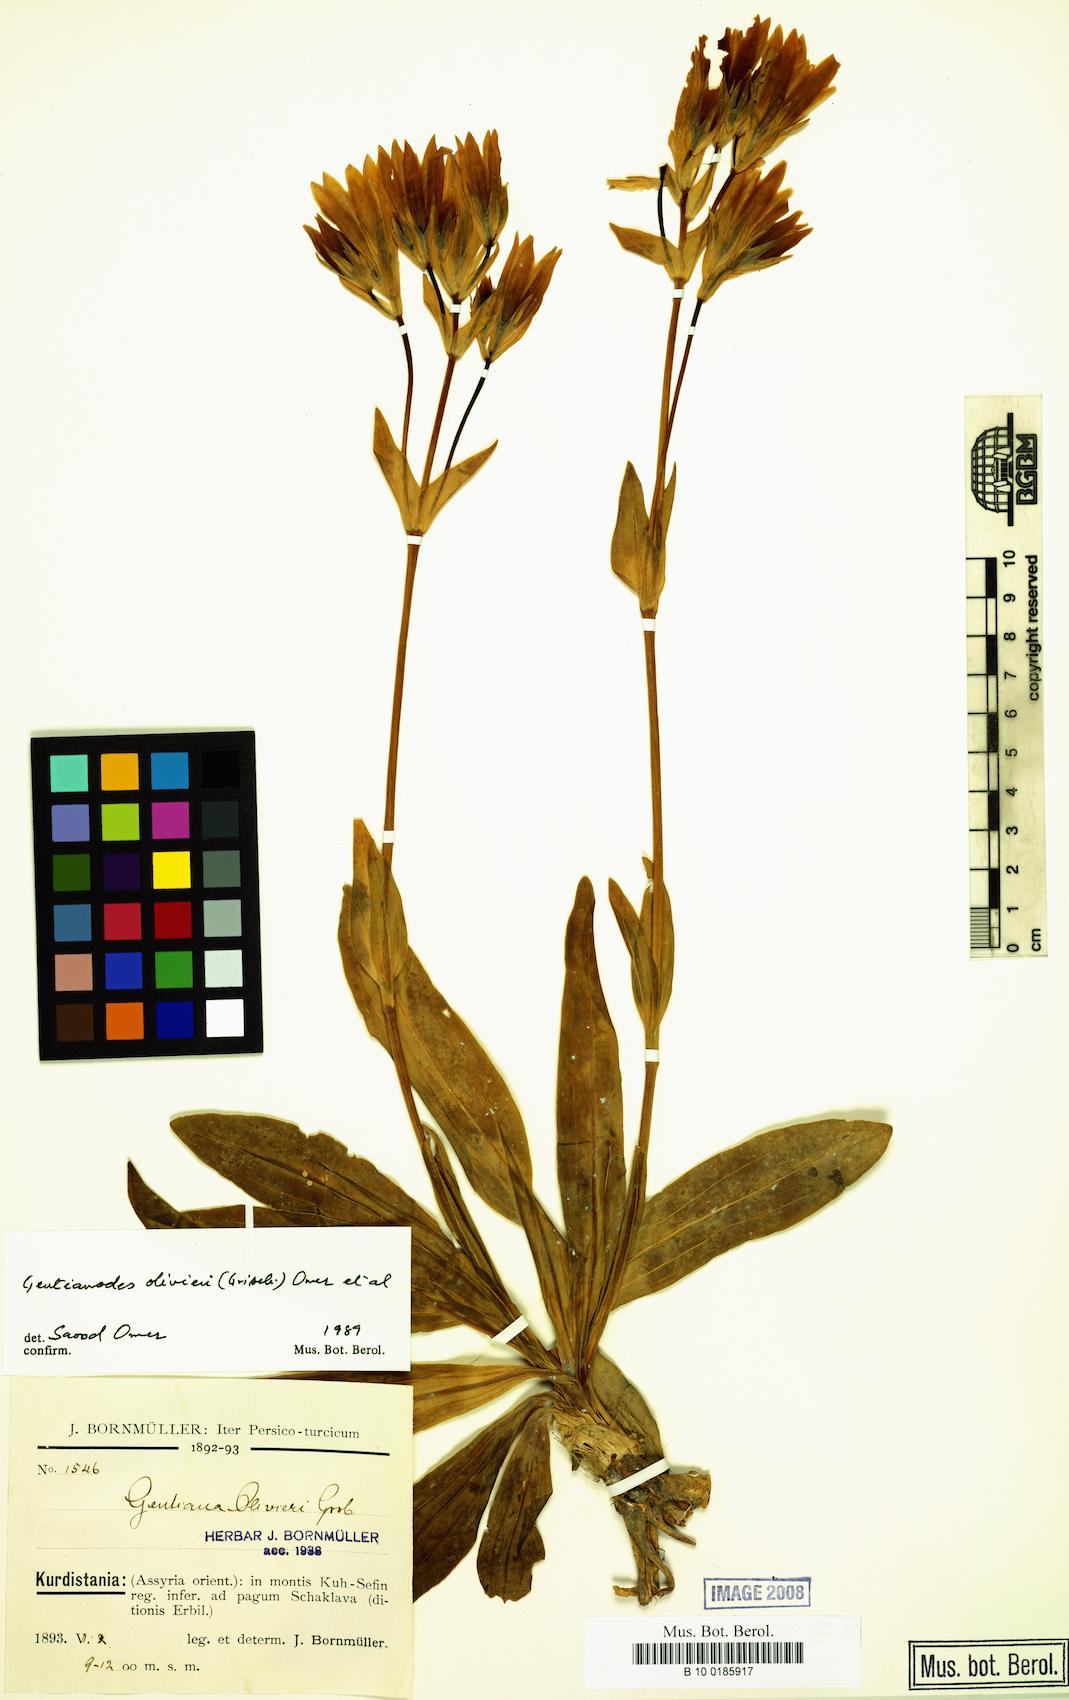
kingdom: Plantae
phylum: Tracheophyta
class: Magnoliopsida
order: Gentianales
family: Gentianaceae
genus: Gentiana
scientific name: Gentiana olivieri
